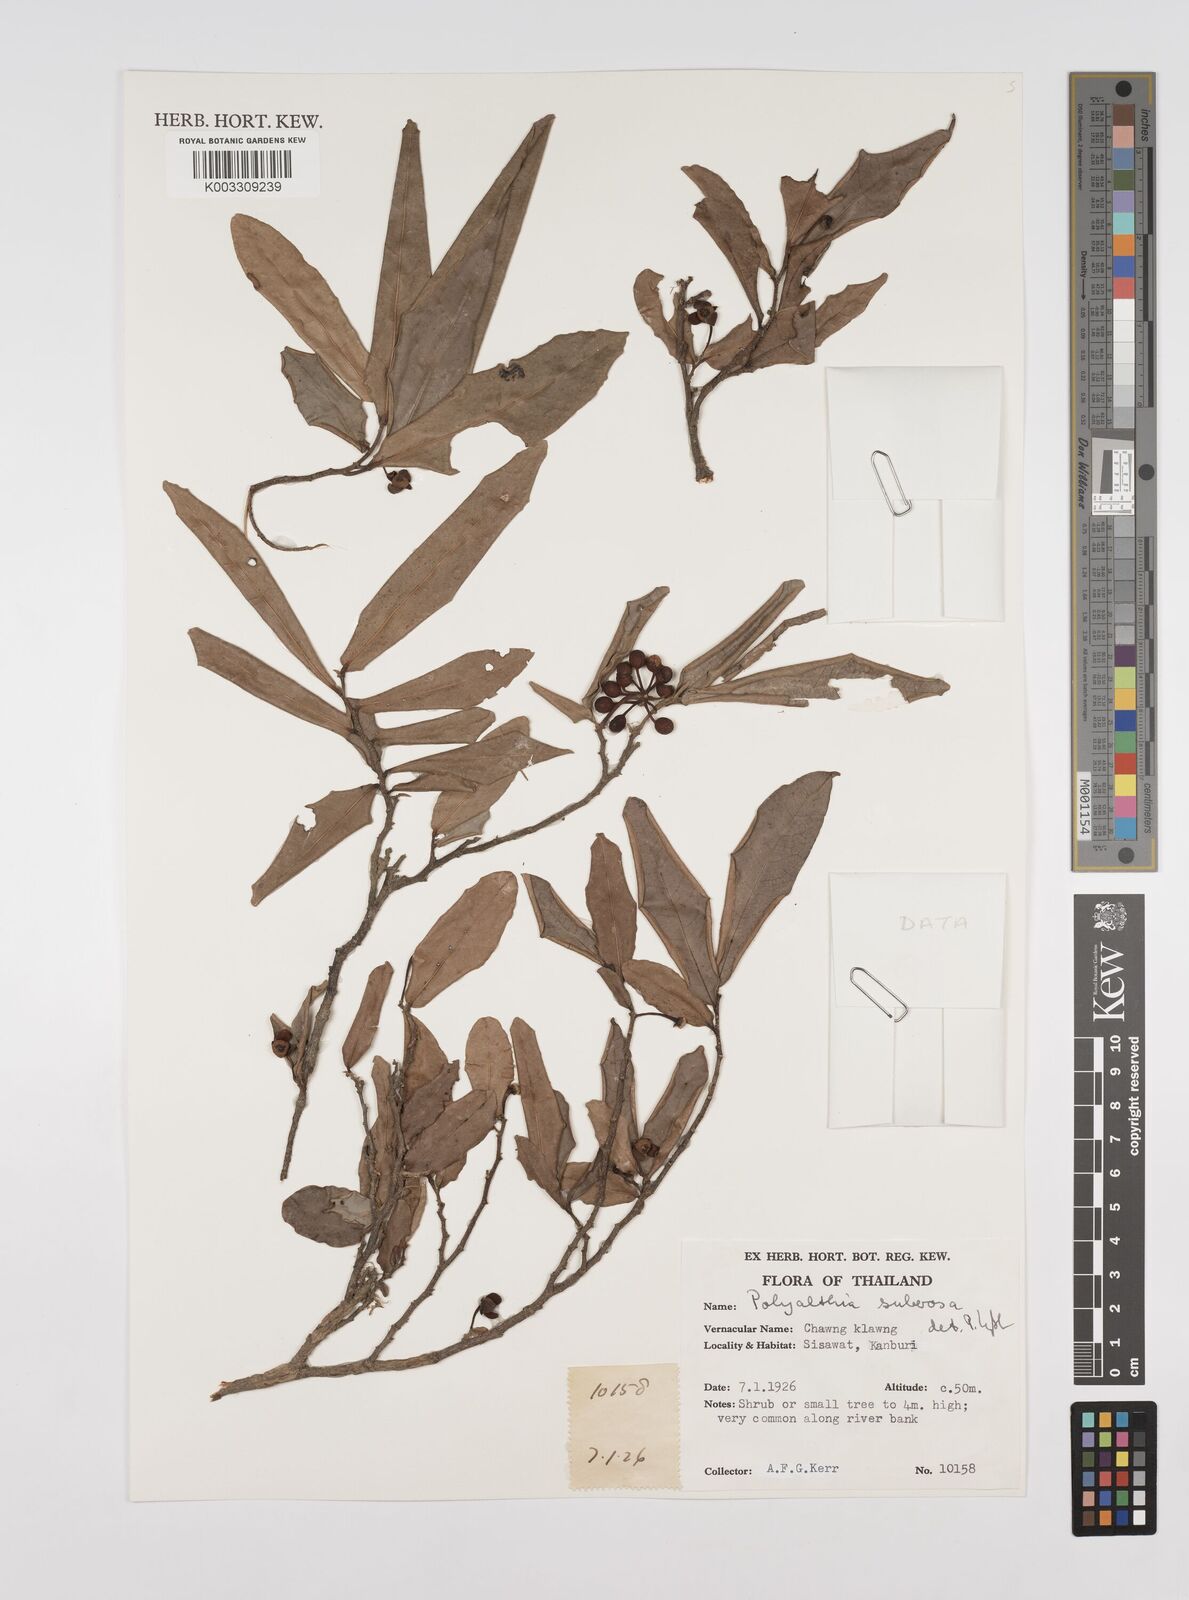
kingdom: Plantae
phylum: Tracheophyta
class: Magnoliopsida
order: Magnoliales
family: Annonaceae
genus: Polyalthia
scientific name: Polyalthia suberosa
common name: Polyalthia plant
